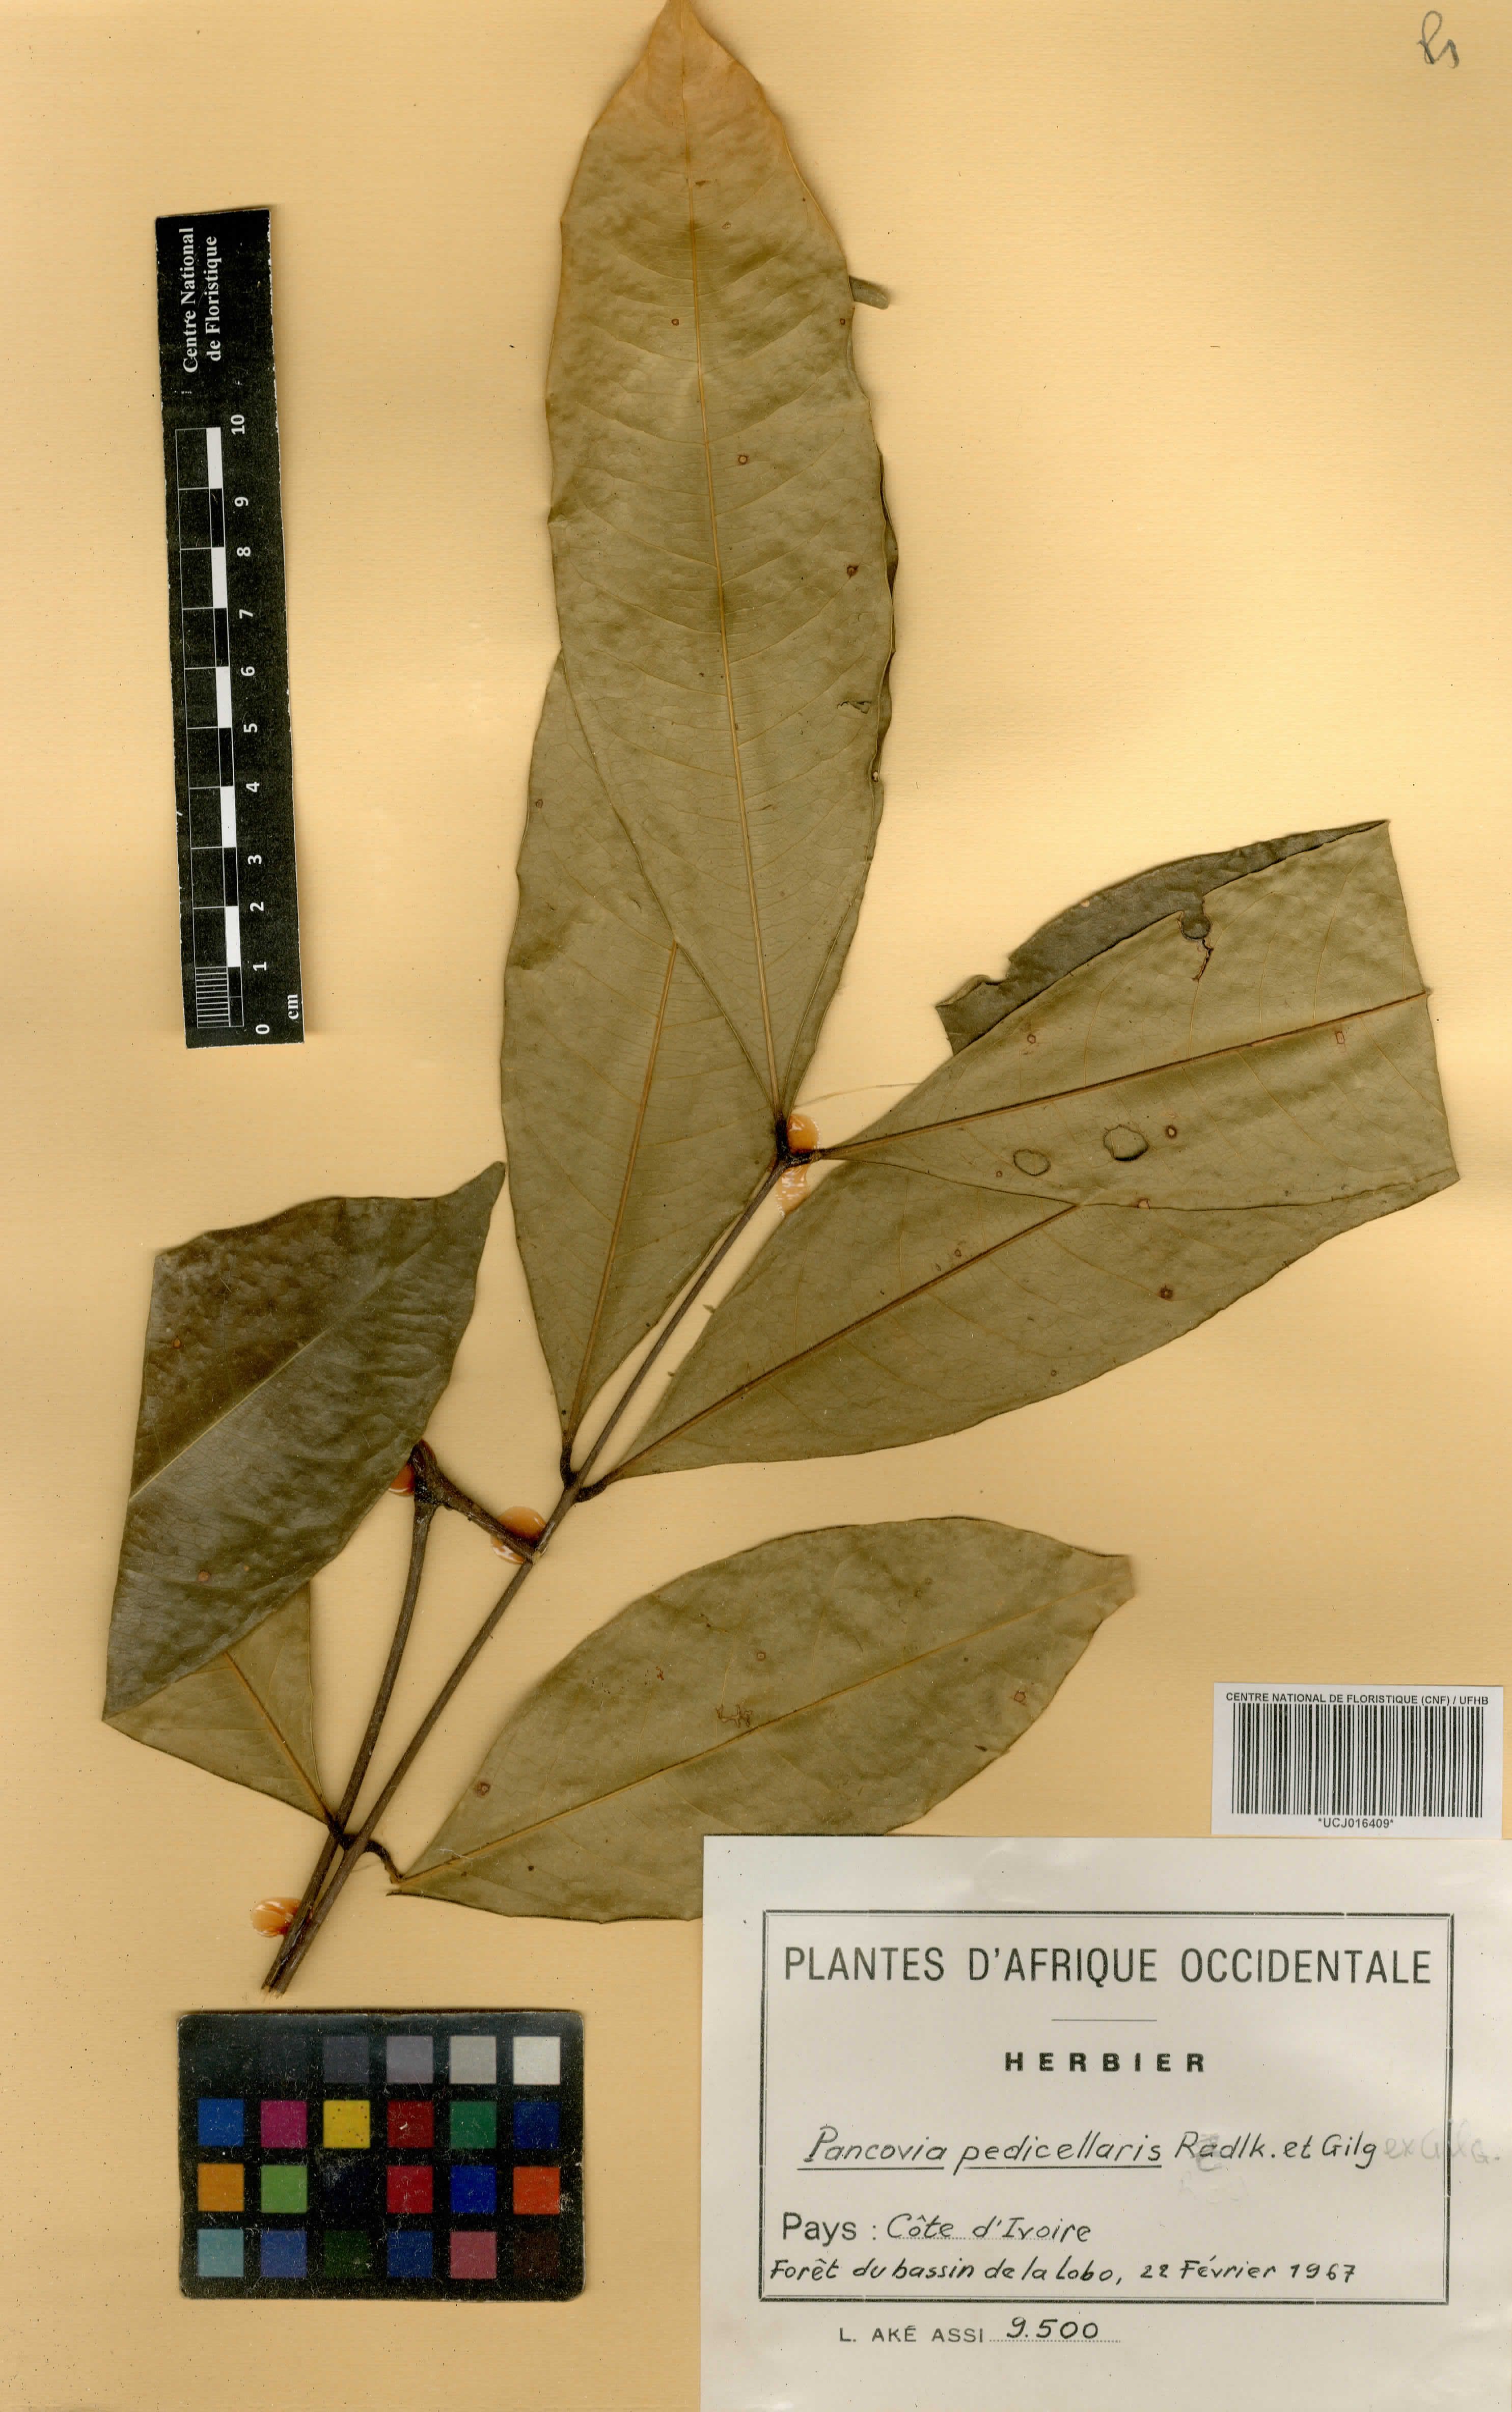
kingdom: Plantae
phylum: Tracheophyta
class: Magnoliopsida
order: Sapindales
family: Sapindaceae
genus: Pancovia
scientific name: Pancovia turbinata
